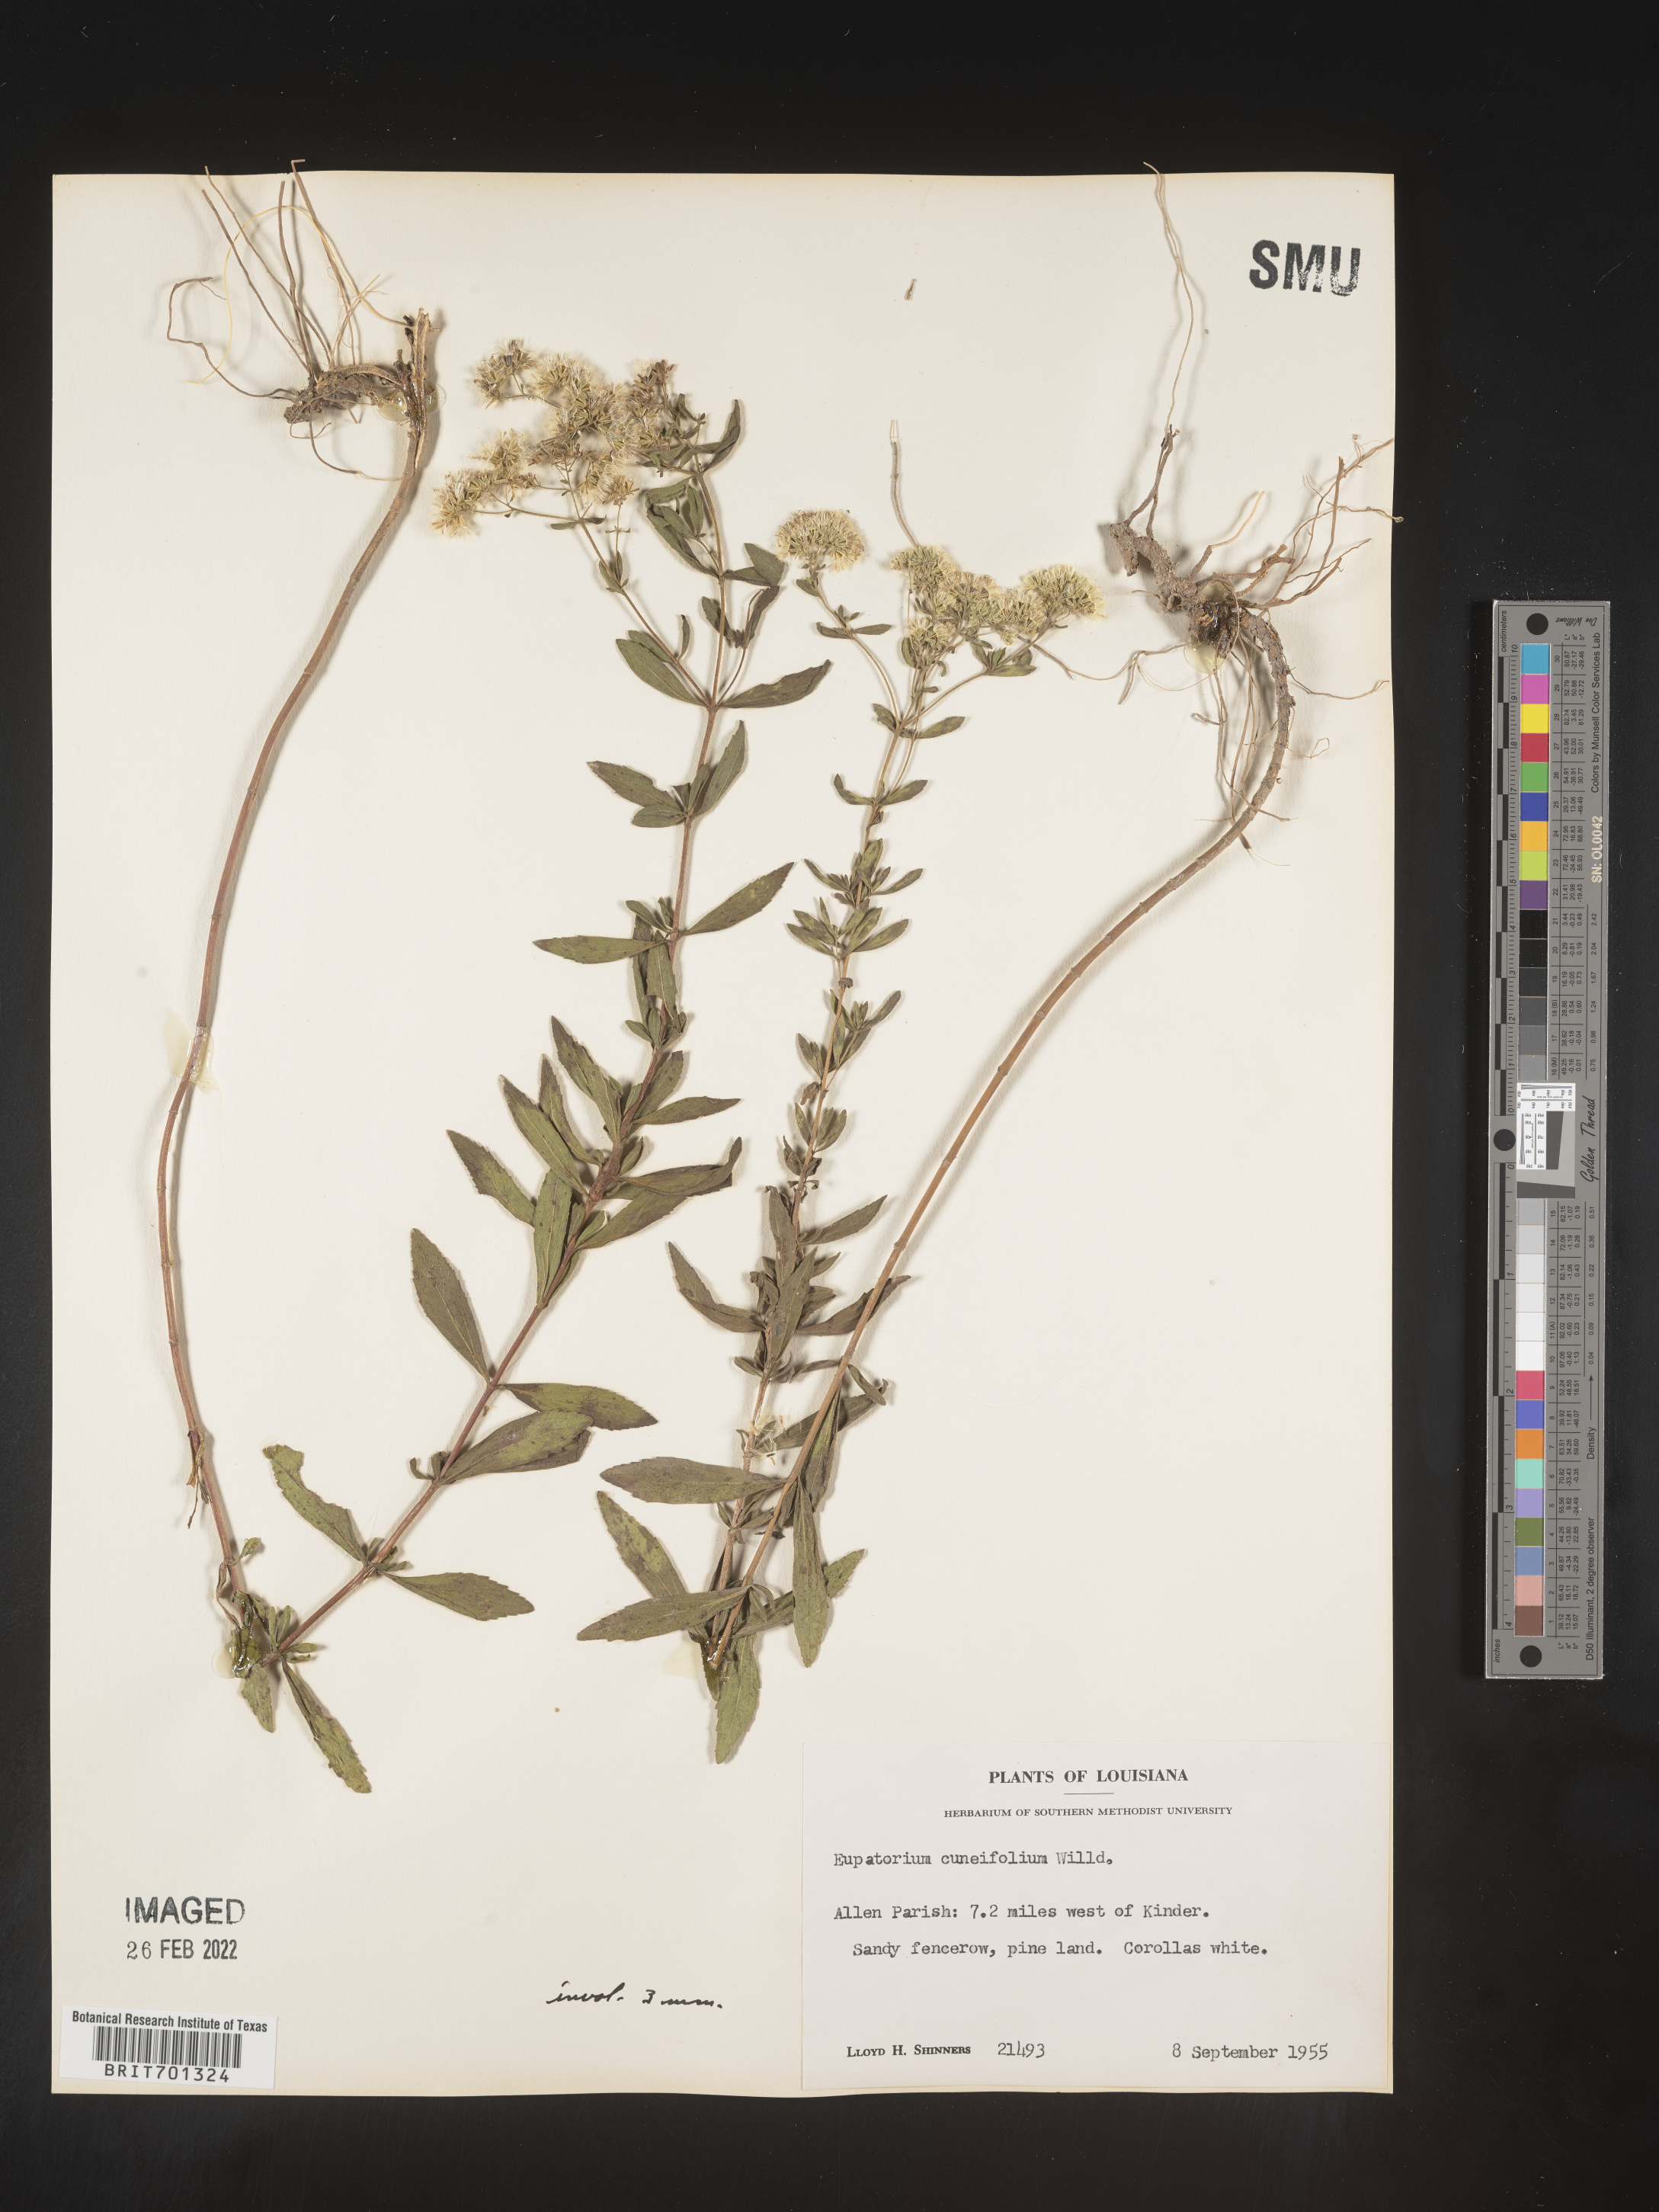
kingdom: Plantae
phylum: Tracheophyta
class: Magnoliopsida
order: Asterales
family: Asteraceae
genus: Eupatorium
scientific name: Eupatorium linearifolium
